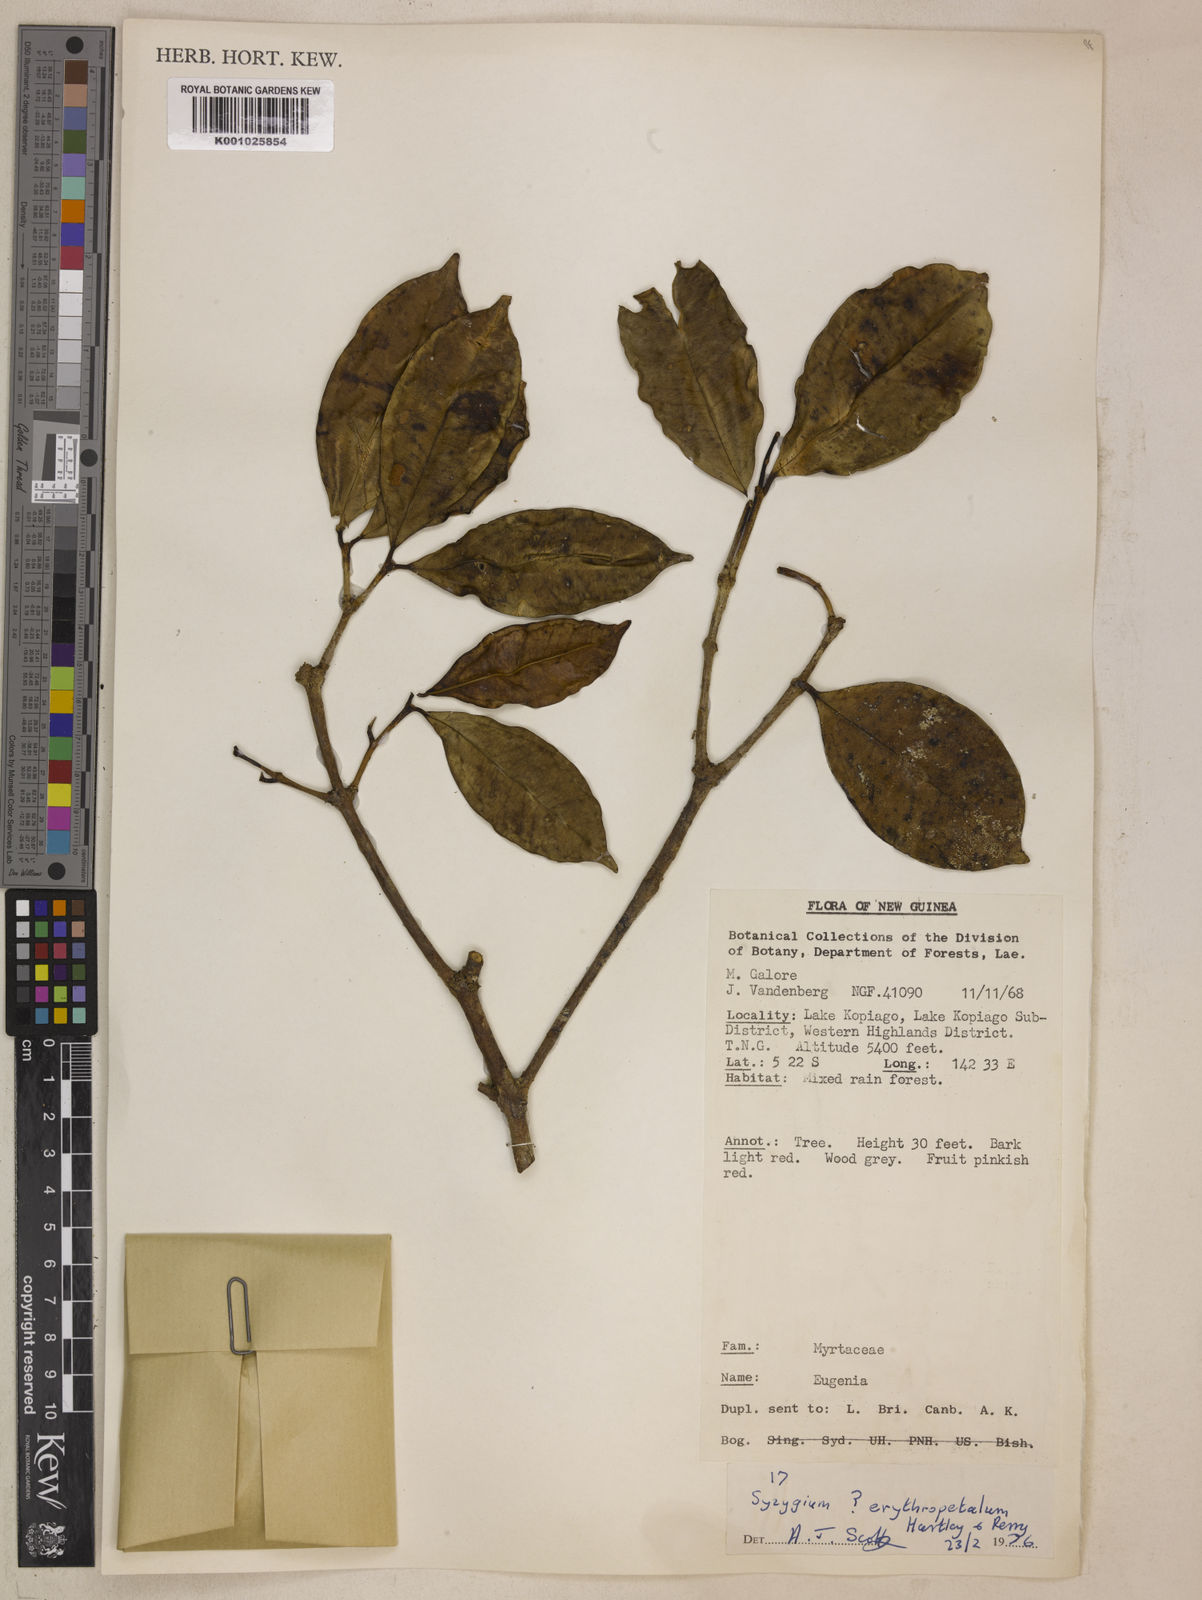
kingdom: Plantae
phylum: Tracheophyta
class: Magnoliopsida
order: Myrtales
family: Myrtaceae
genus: Syzygium
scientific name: Syzygium erythropetalum
